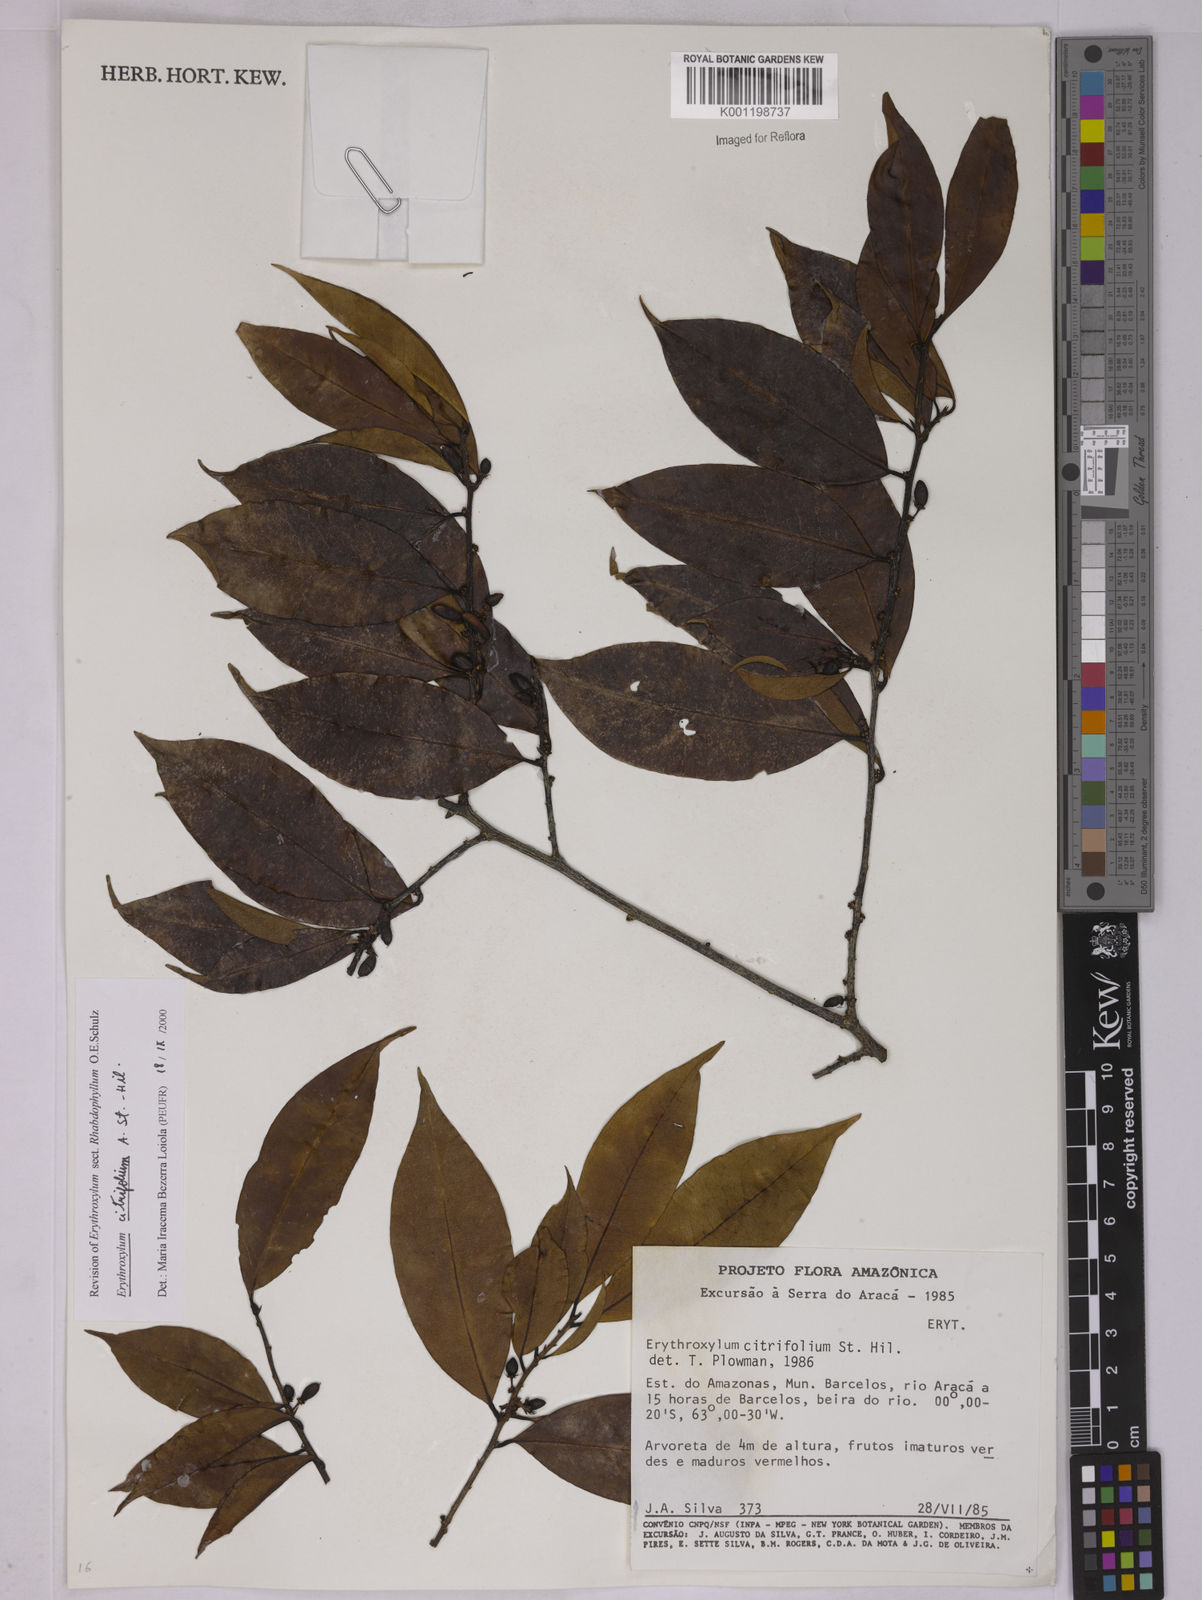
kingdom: Plantae
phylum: Tracheophyta
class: Magnoliopsida
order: Malpighiales
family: Erythroxylaceae
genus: Erythroxylum
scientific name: Erythroxylum citrifolium
